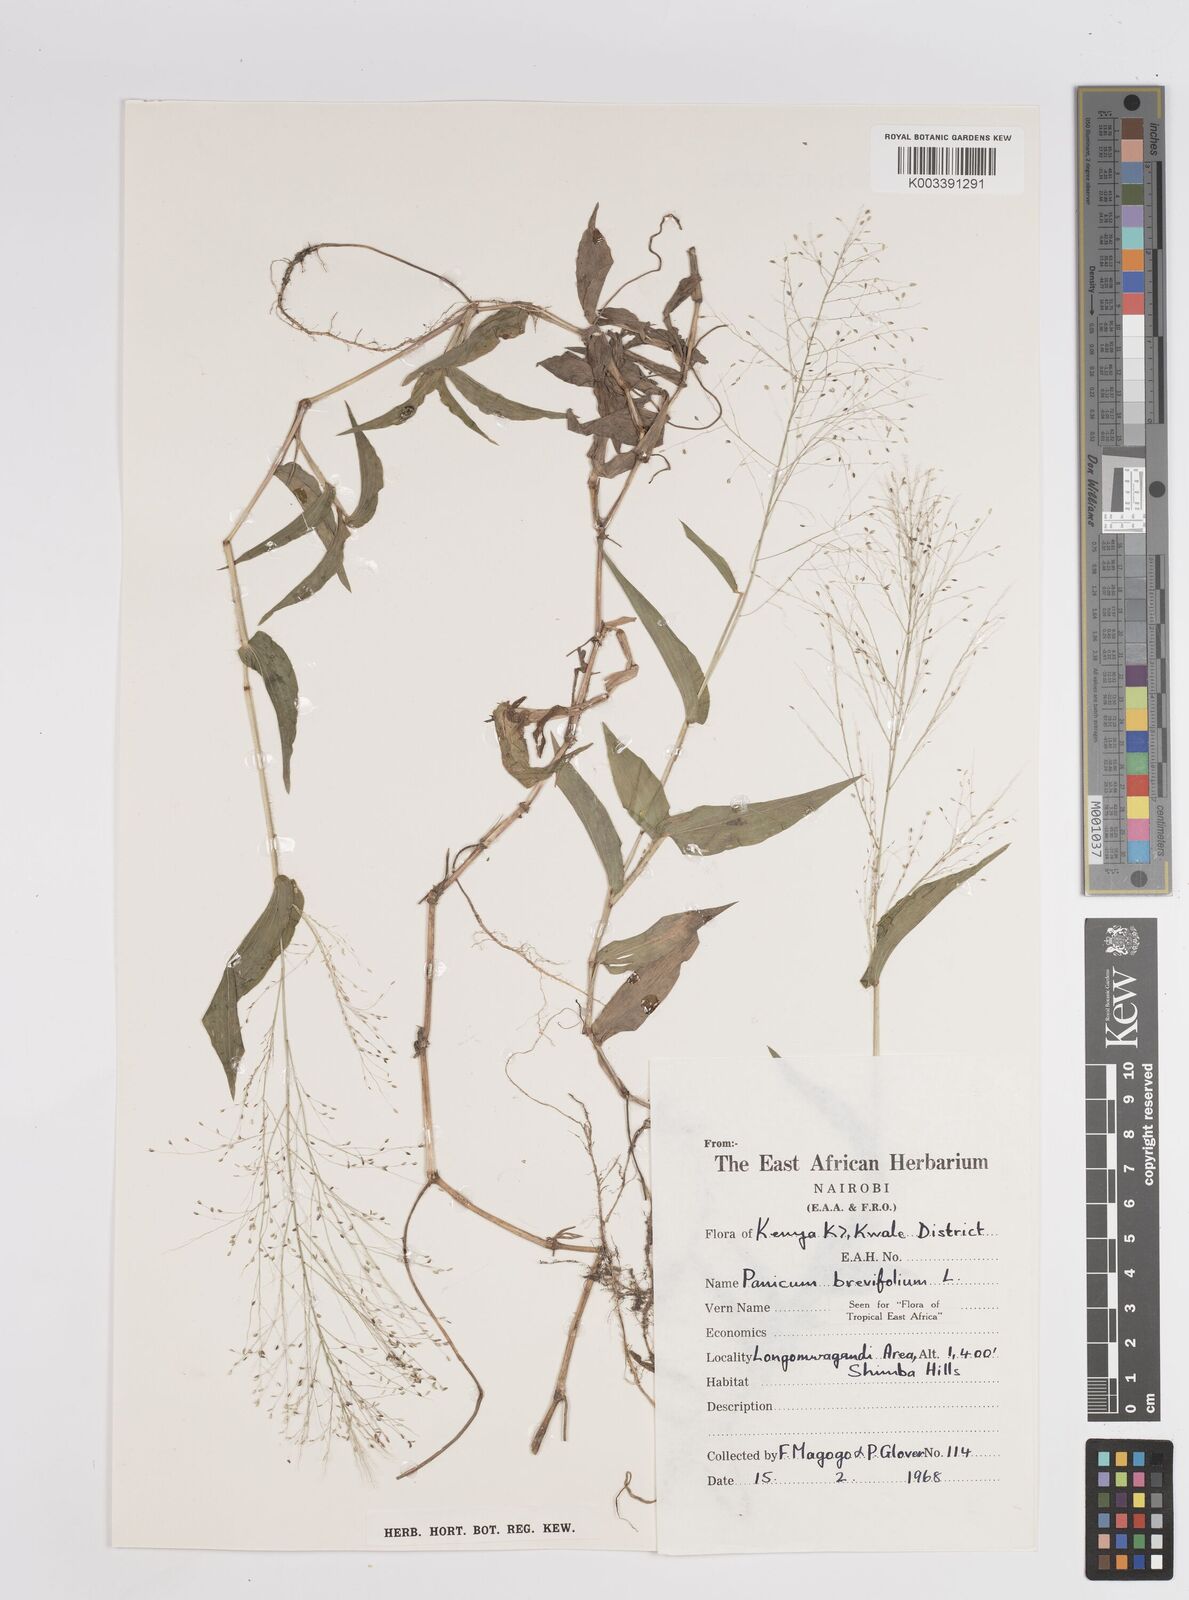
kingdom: Plantae
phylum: Tracheophyta
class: Liliopsida
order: Poales
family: Poaceae
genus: Panicum
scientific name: Panicum brevifolium
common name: Shortleaf panic grass
